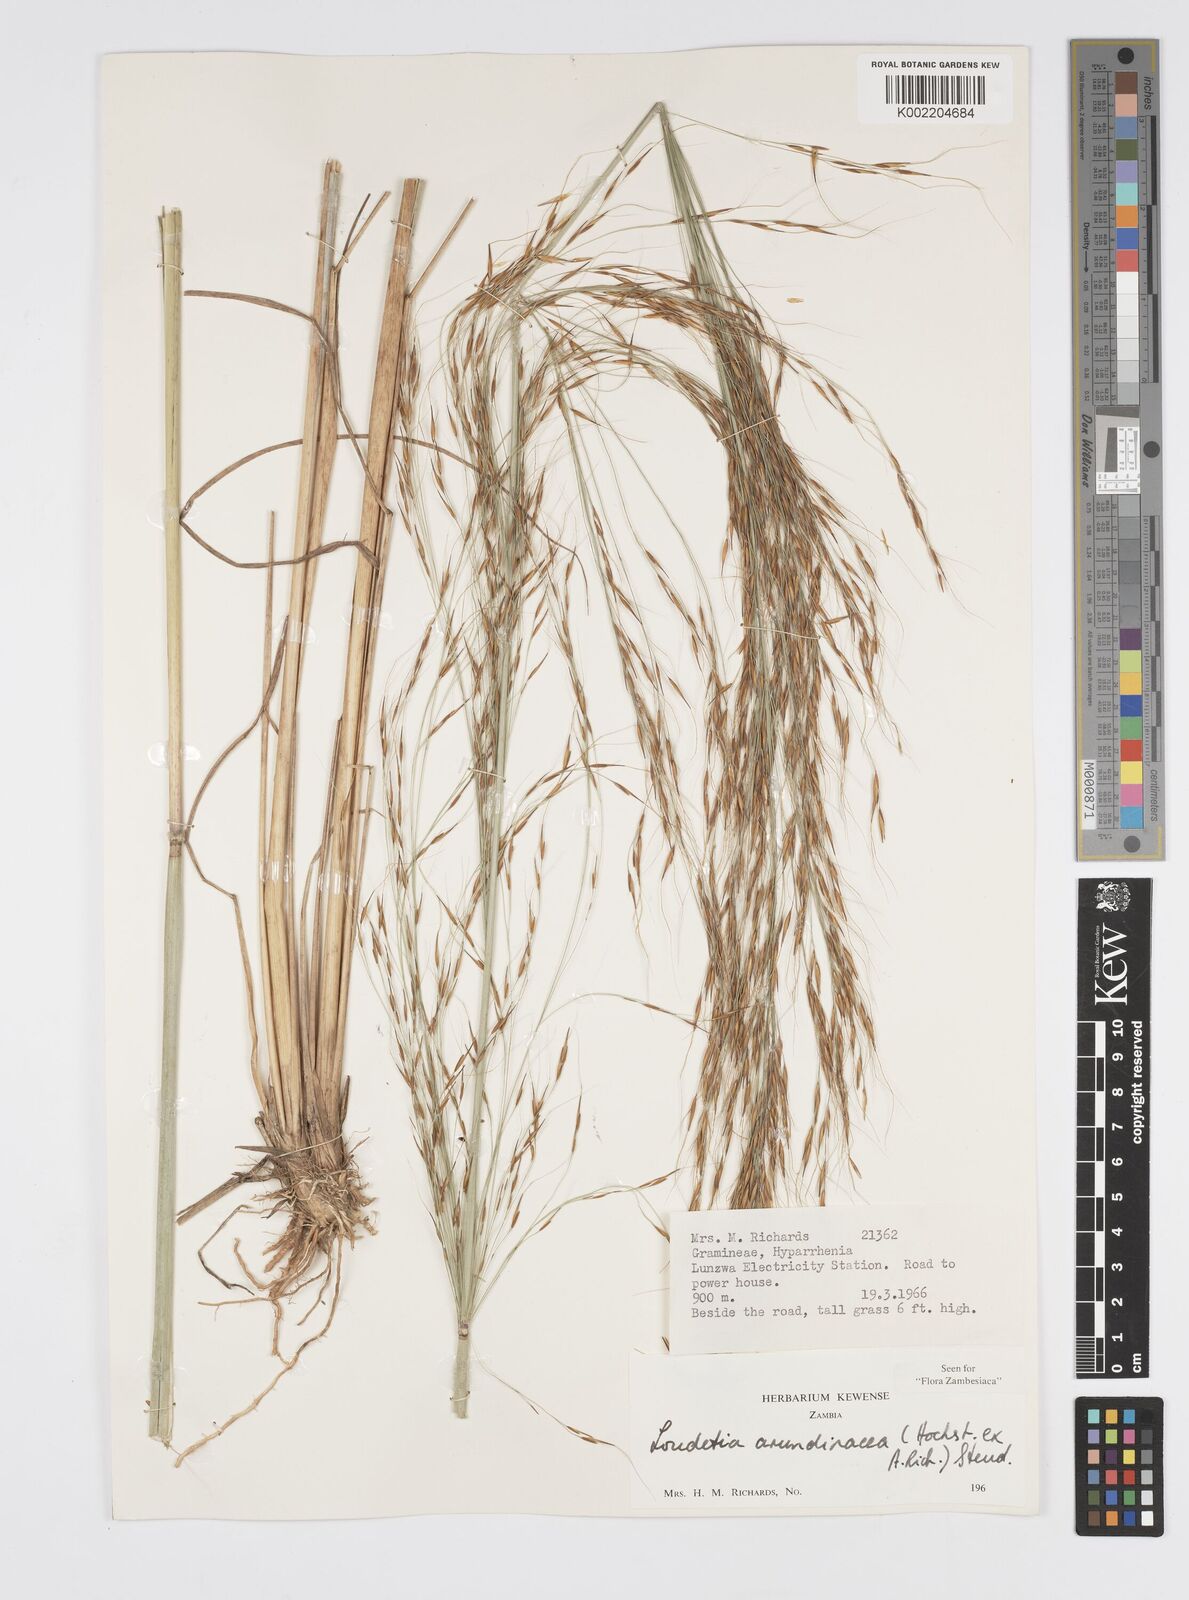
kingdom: Plantae
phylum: Tracheophyta
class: Liliopsida
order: Poales
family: Poaceae
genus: Loudetia
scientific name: Loudetia arundinacea
